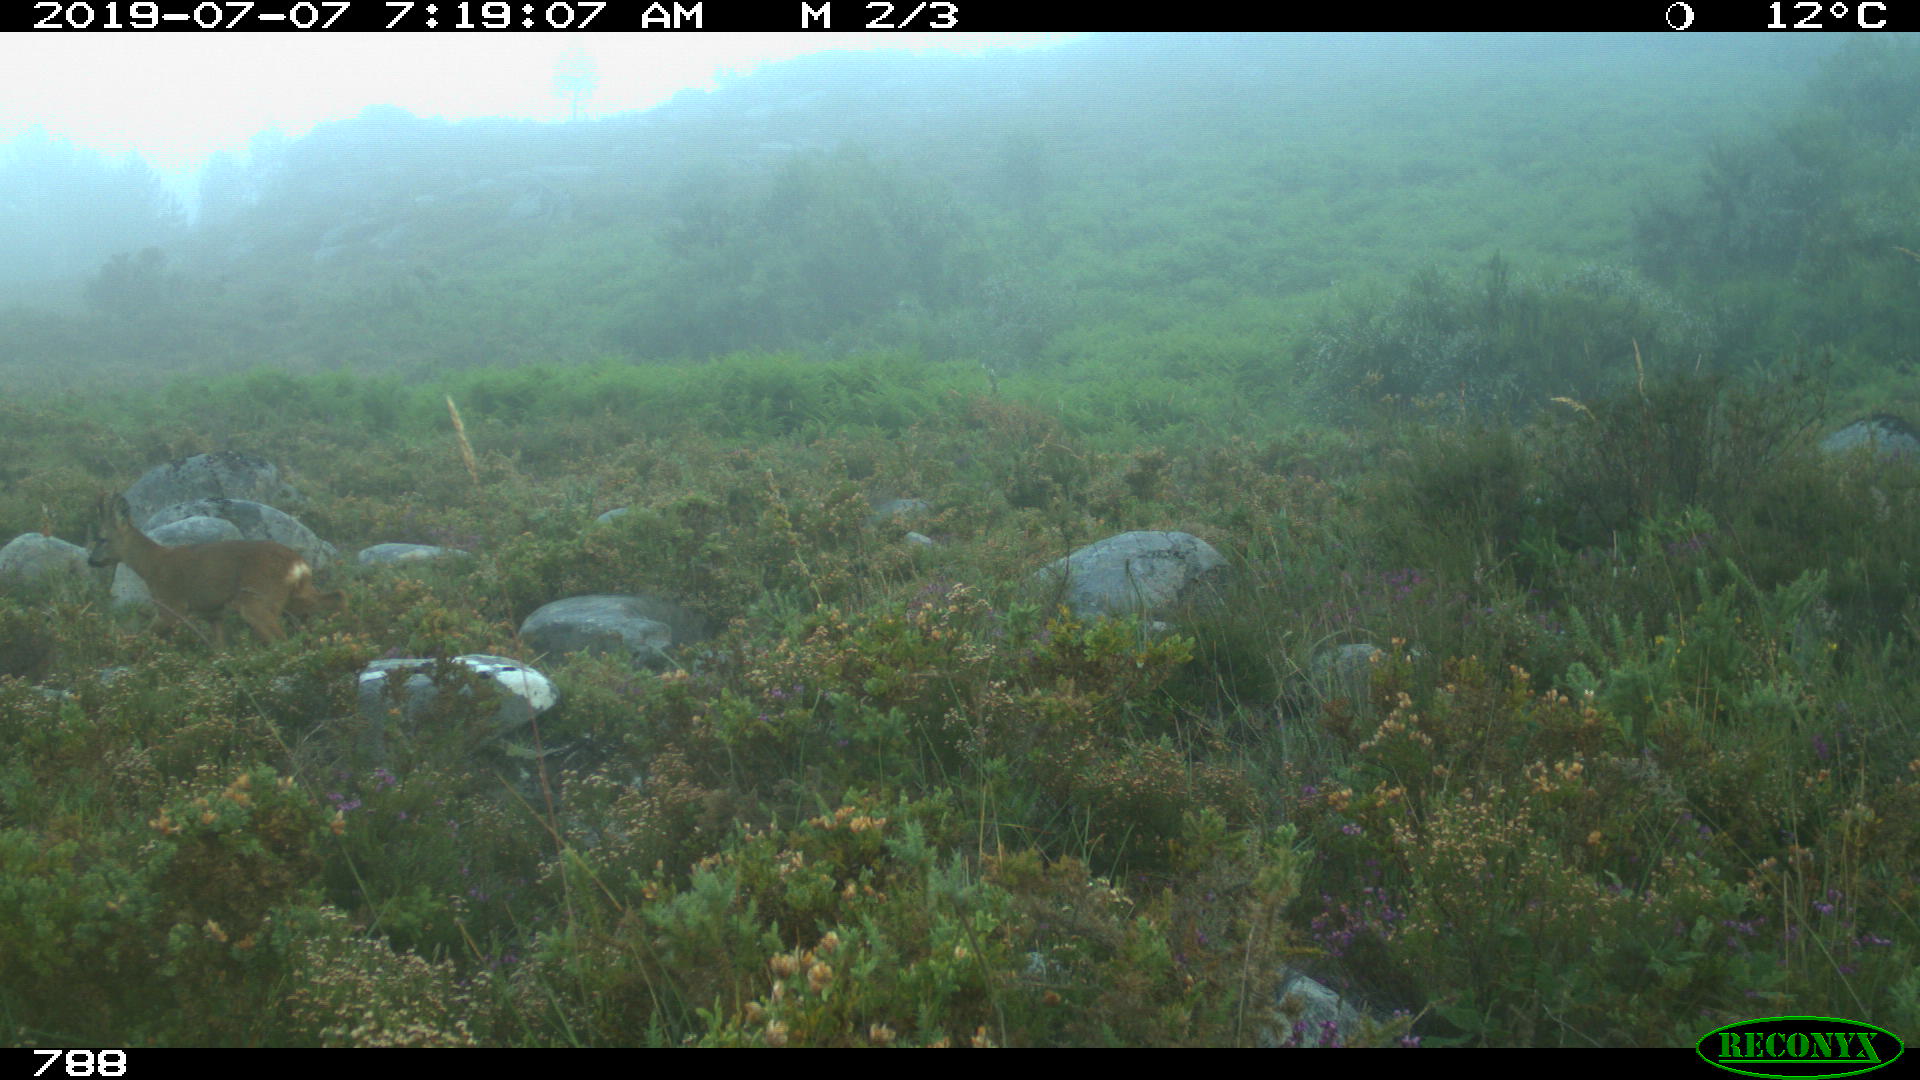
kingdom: Animalia
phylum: Chordata
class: Mammalia
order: Artiodactyla
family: Cervidae
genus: Capreolus
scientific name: Capreolus capreolus
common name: Western roe deer
